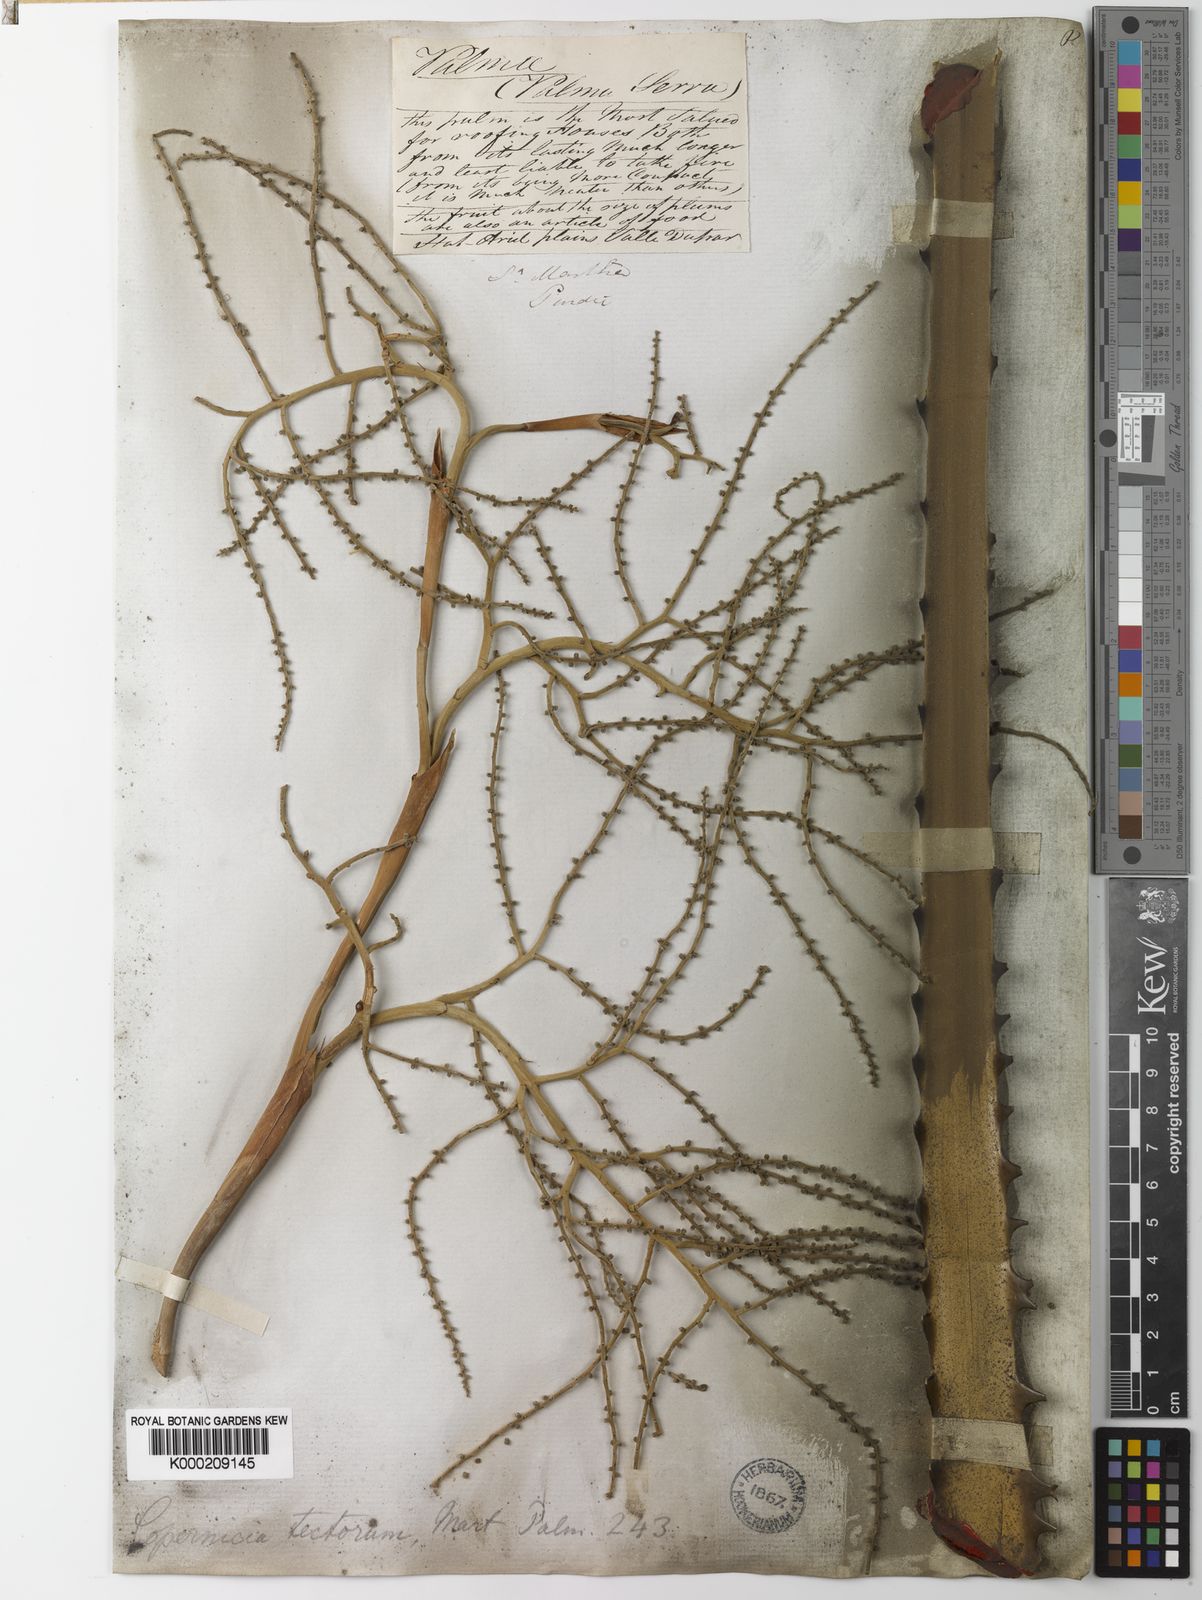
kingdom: Plantae
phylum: Tracheophyta
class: Liliopsida
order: Arecales
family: Arecaceae
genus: Copernicia
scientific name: Copernicia tectorum
